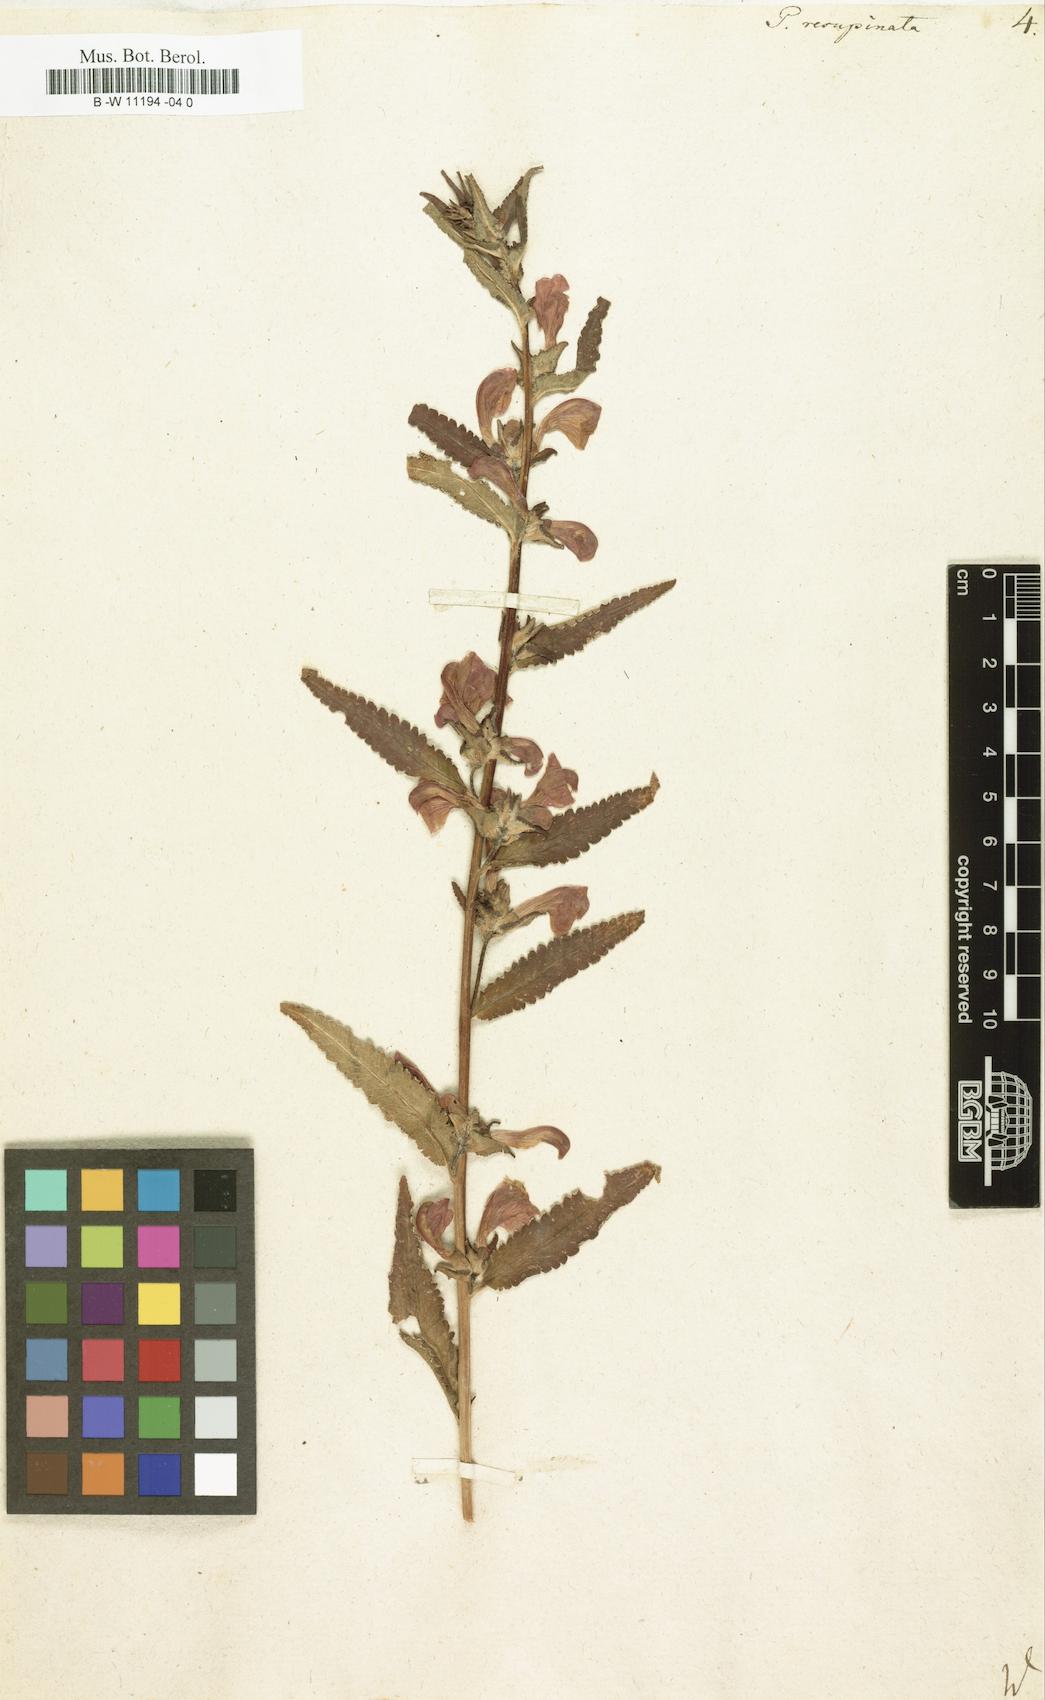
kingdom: Plantae
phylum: Tracheophyta
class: Magnoliopsida
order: Lamiales
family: Orobanchaceae
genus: Pedicularis
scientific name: Pedicularis resupinata
